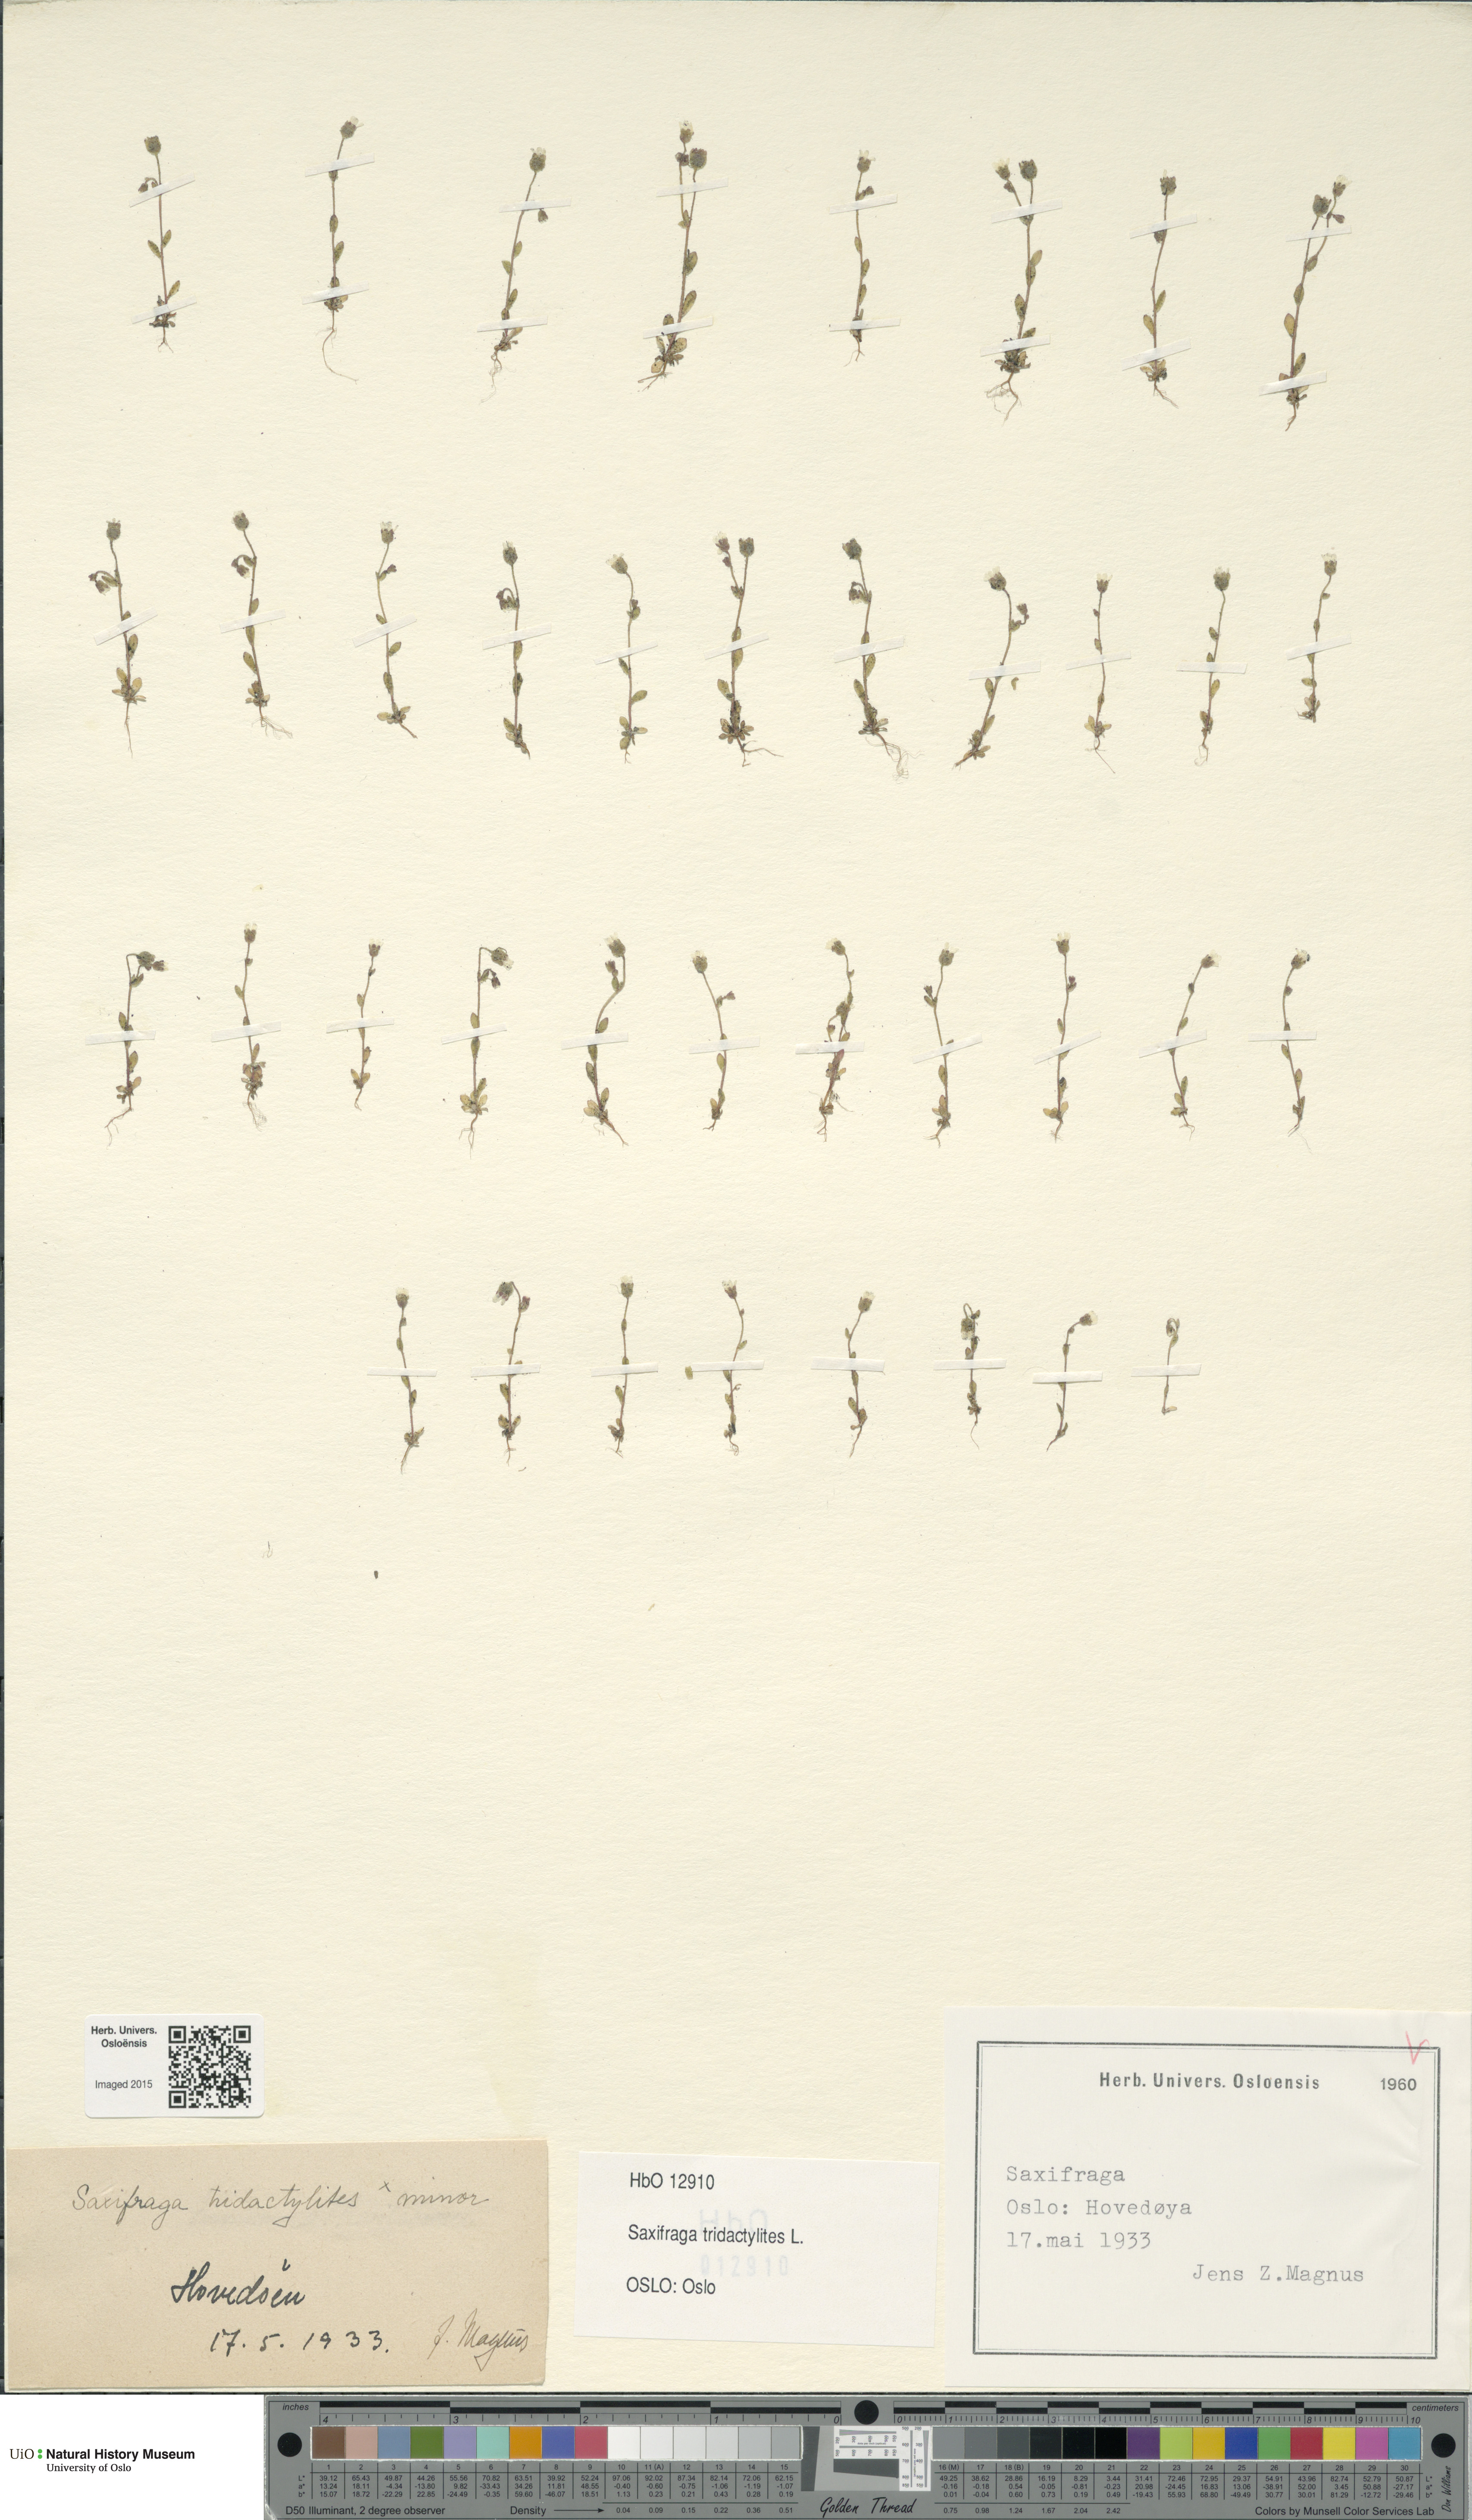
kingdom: Plantae
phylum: Tracheophyta
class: Magnoliopsida
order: Saxifragales
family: Saxifragaceae
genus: Saxifraga
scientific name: Saxifraga tridactylites
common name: Rue-leaved saxifrage
